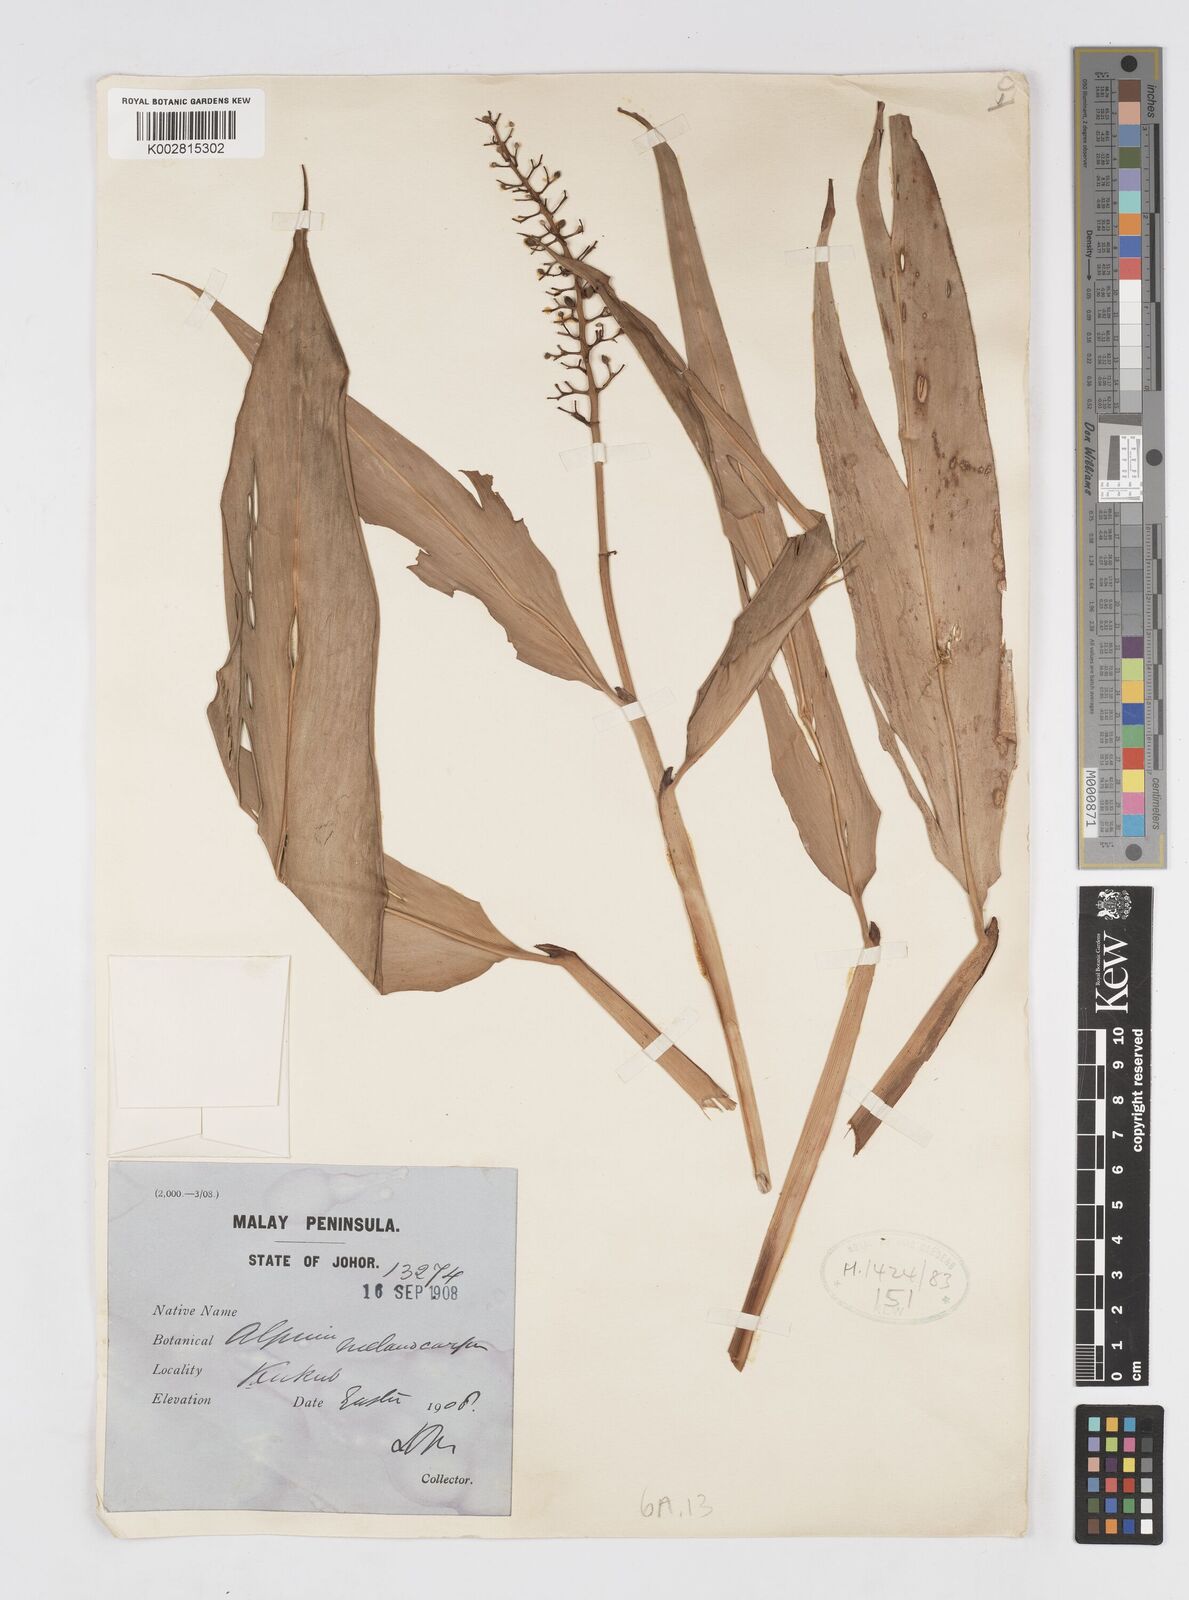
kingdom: Plantae
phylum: Tracheophyta
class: Liliopsida
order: Zingiberales
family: Zingiberaceae
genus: Alpinia
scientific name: Alpinia aquatica
